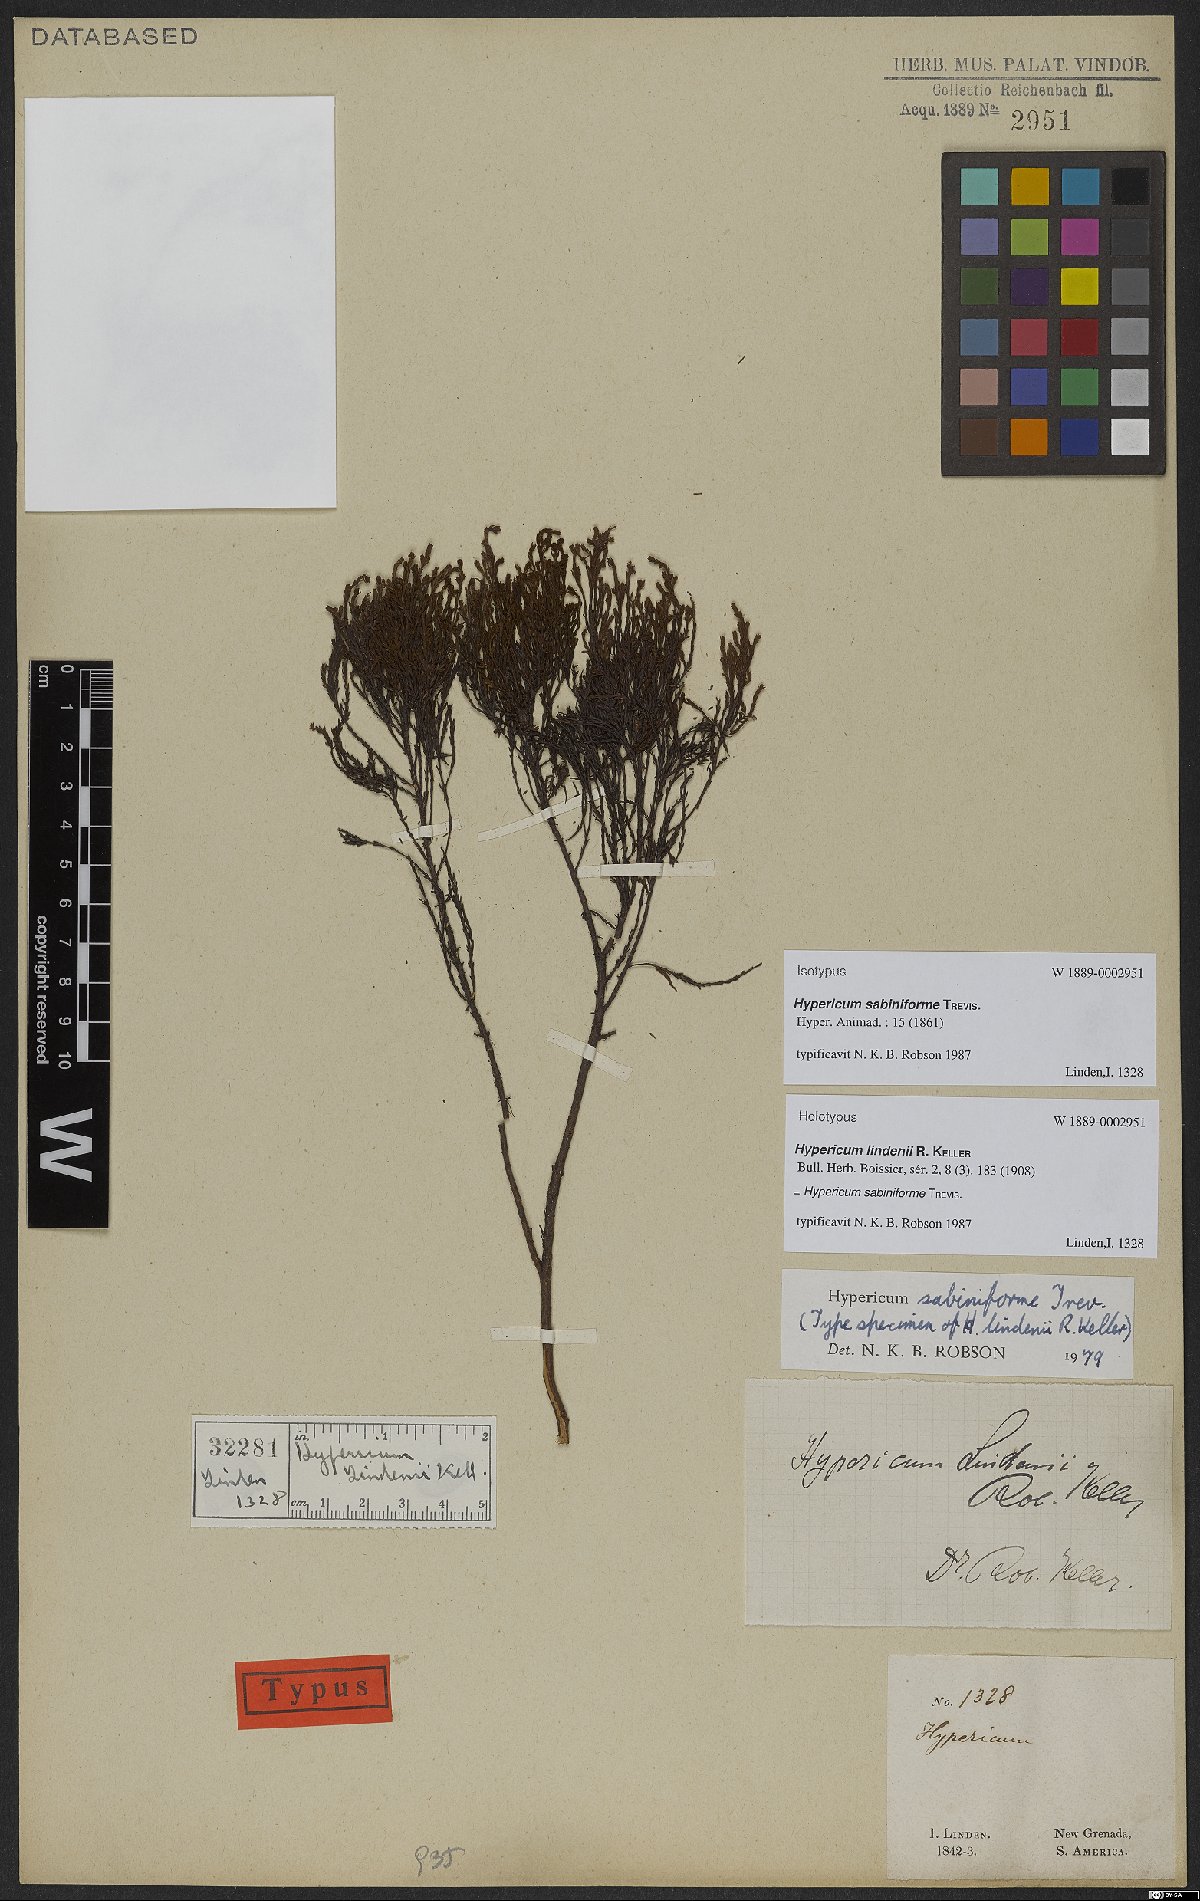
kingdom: Plantae
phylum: Tracheophyta
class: Magnoliopsida
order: Malpighiales
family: Hypericaceae
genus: Hypericum
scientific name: Hypericum sabiniforme
